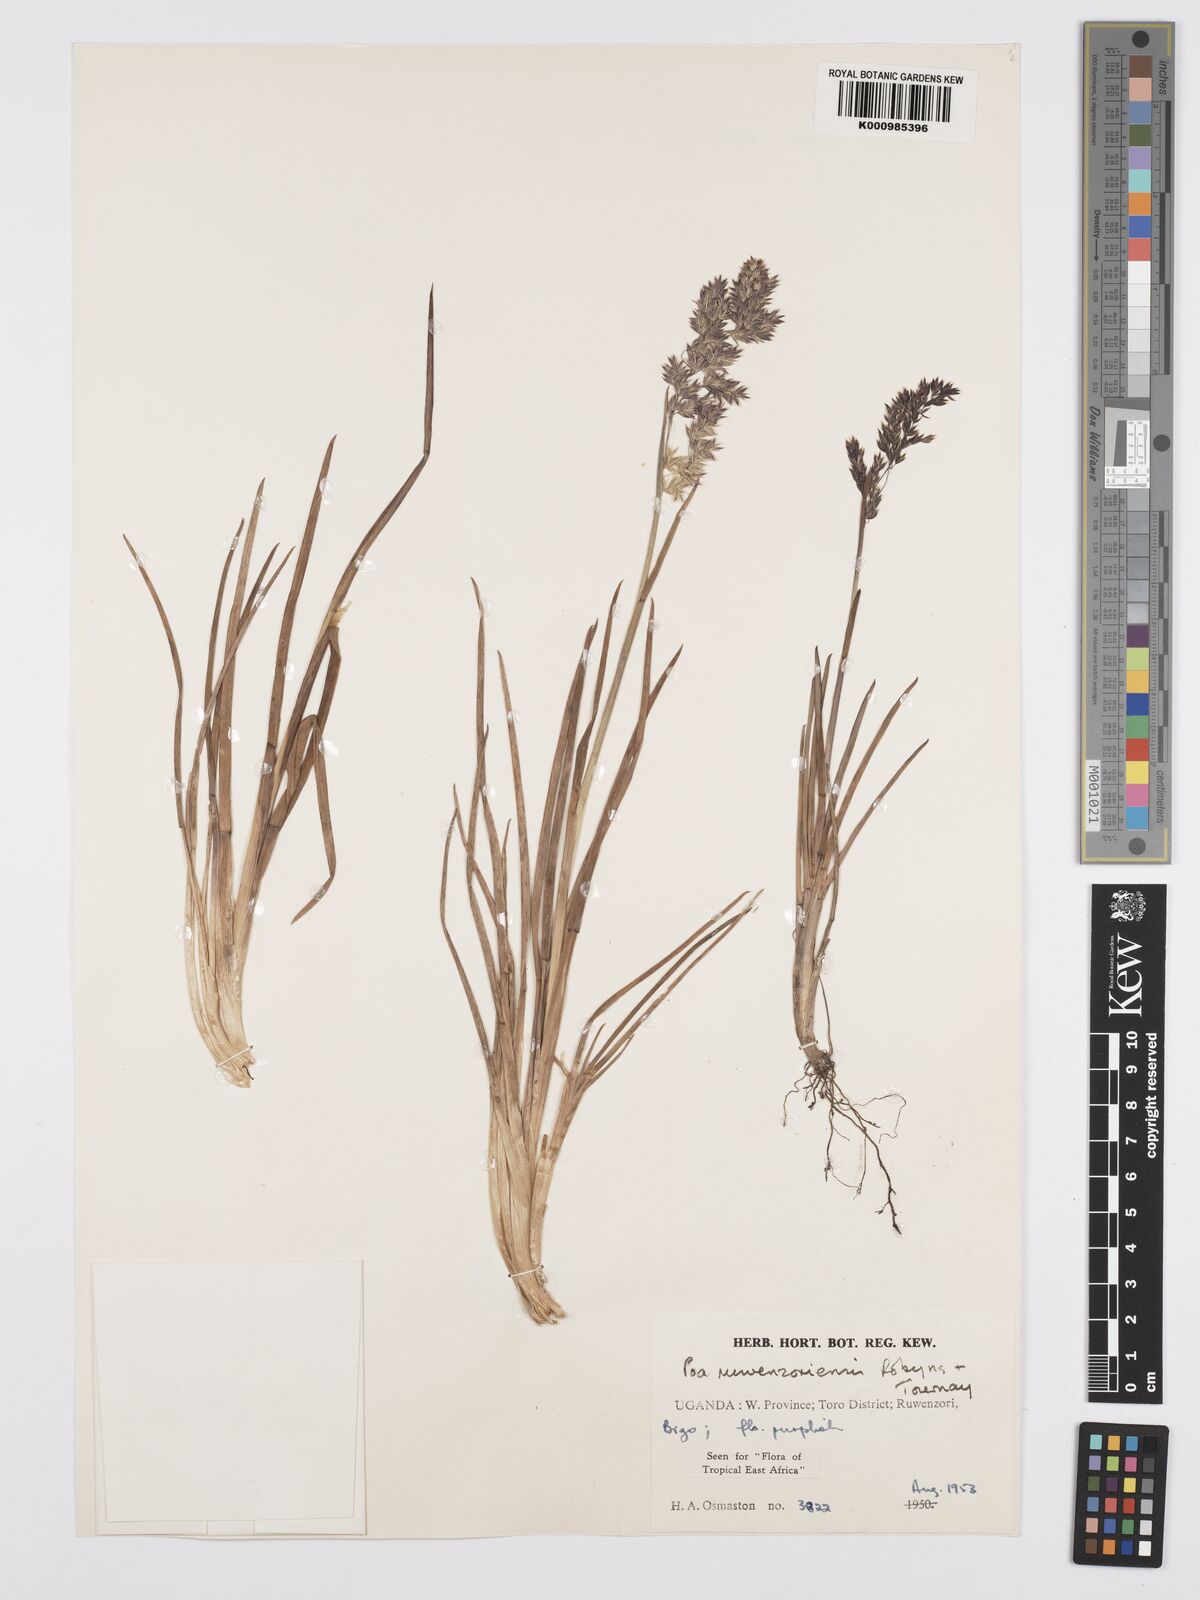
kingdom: Plantae
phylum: Tracheophyta
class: Liliopsida
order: Poales
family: Poaceae
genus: Poa
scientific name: Poa ruwenzoriensis
